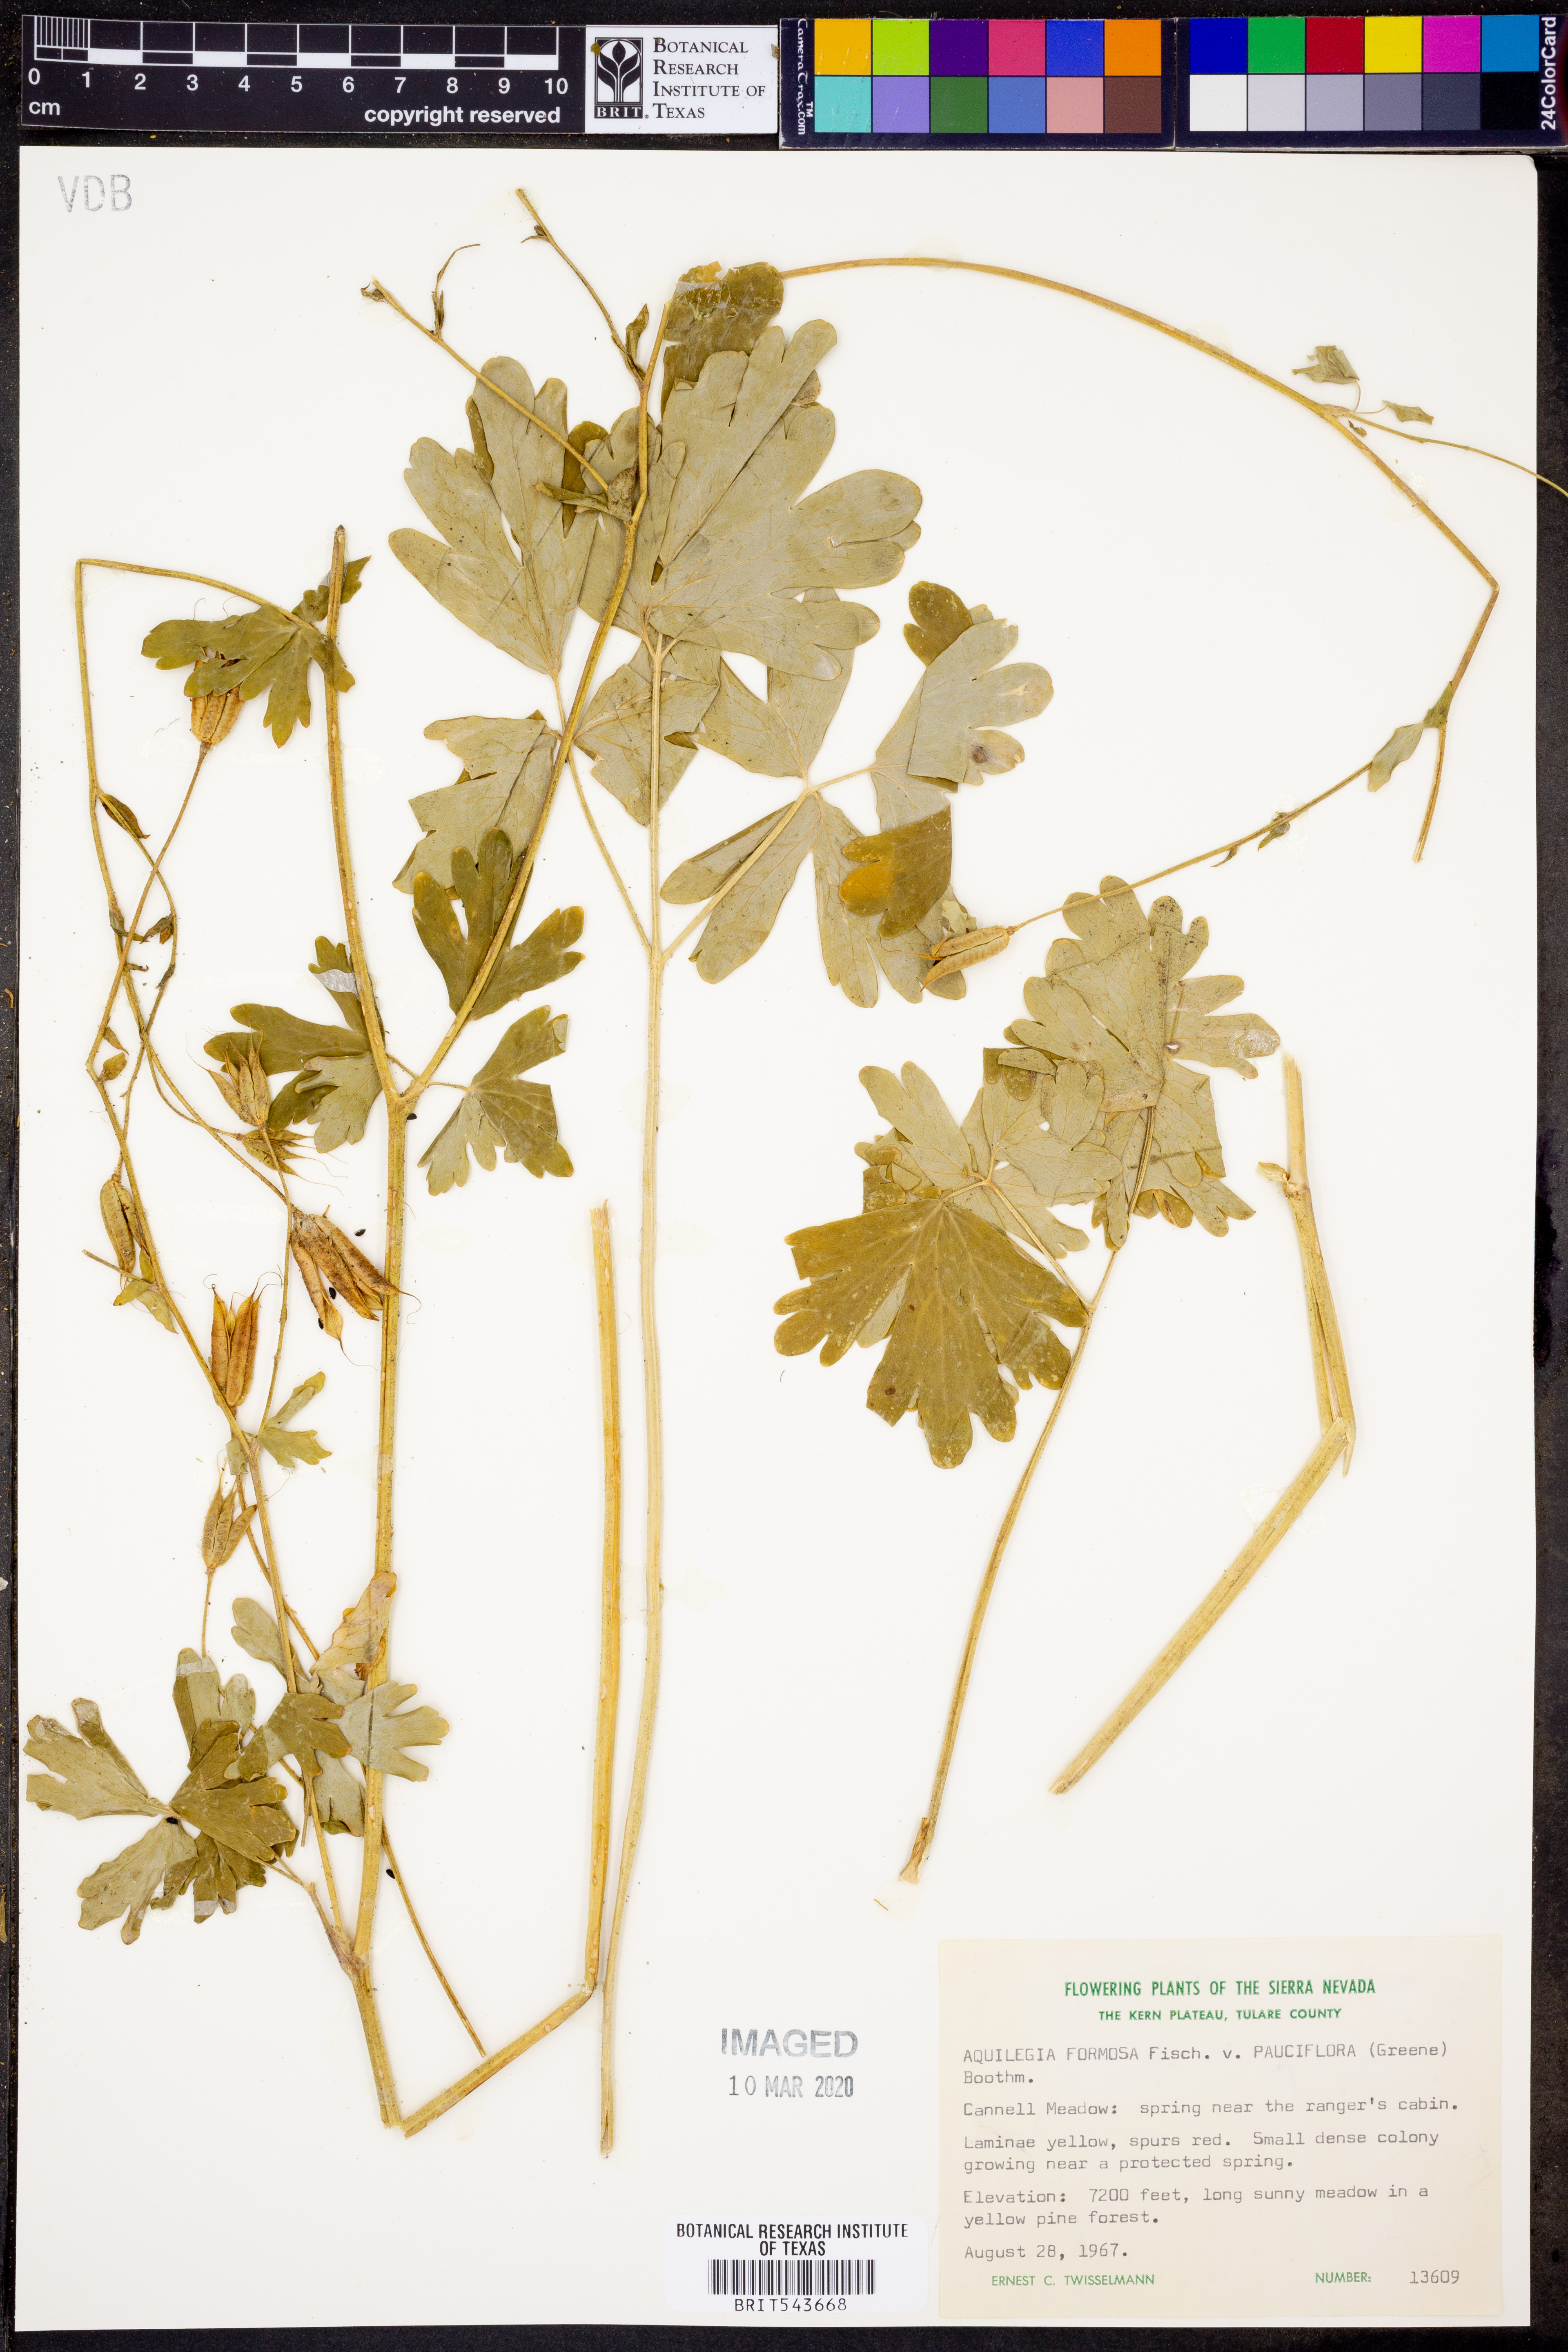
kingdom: Plantae
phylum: Tracheophyta
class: Magnoliopsida
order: Ranunculales
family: Ranunculaceae
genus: Aquilegia
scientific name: Aquilegia formosa
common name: Sitka columbine
